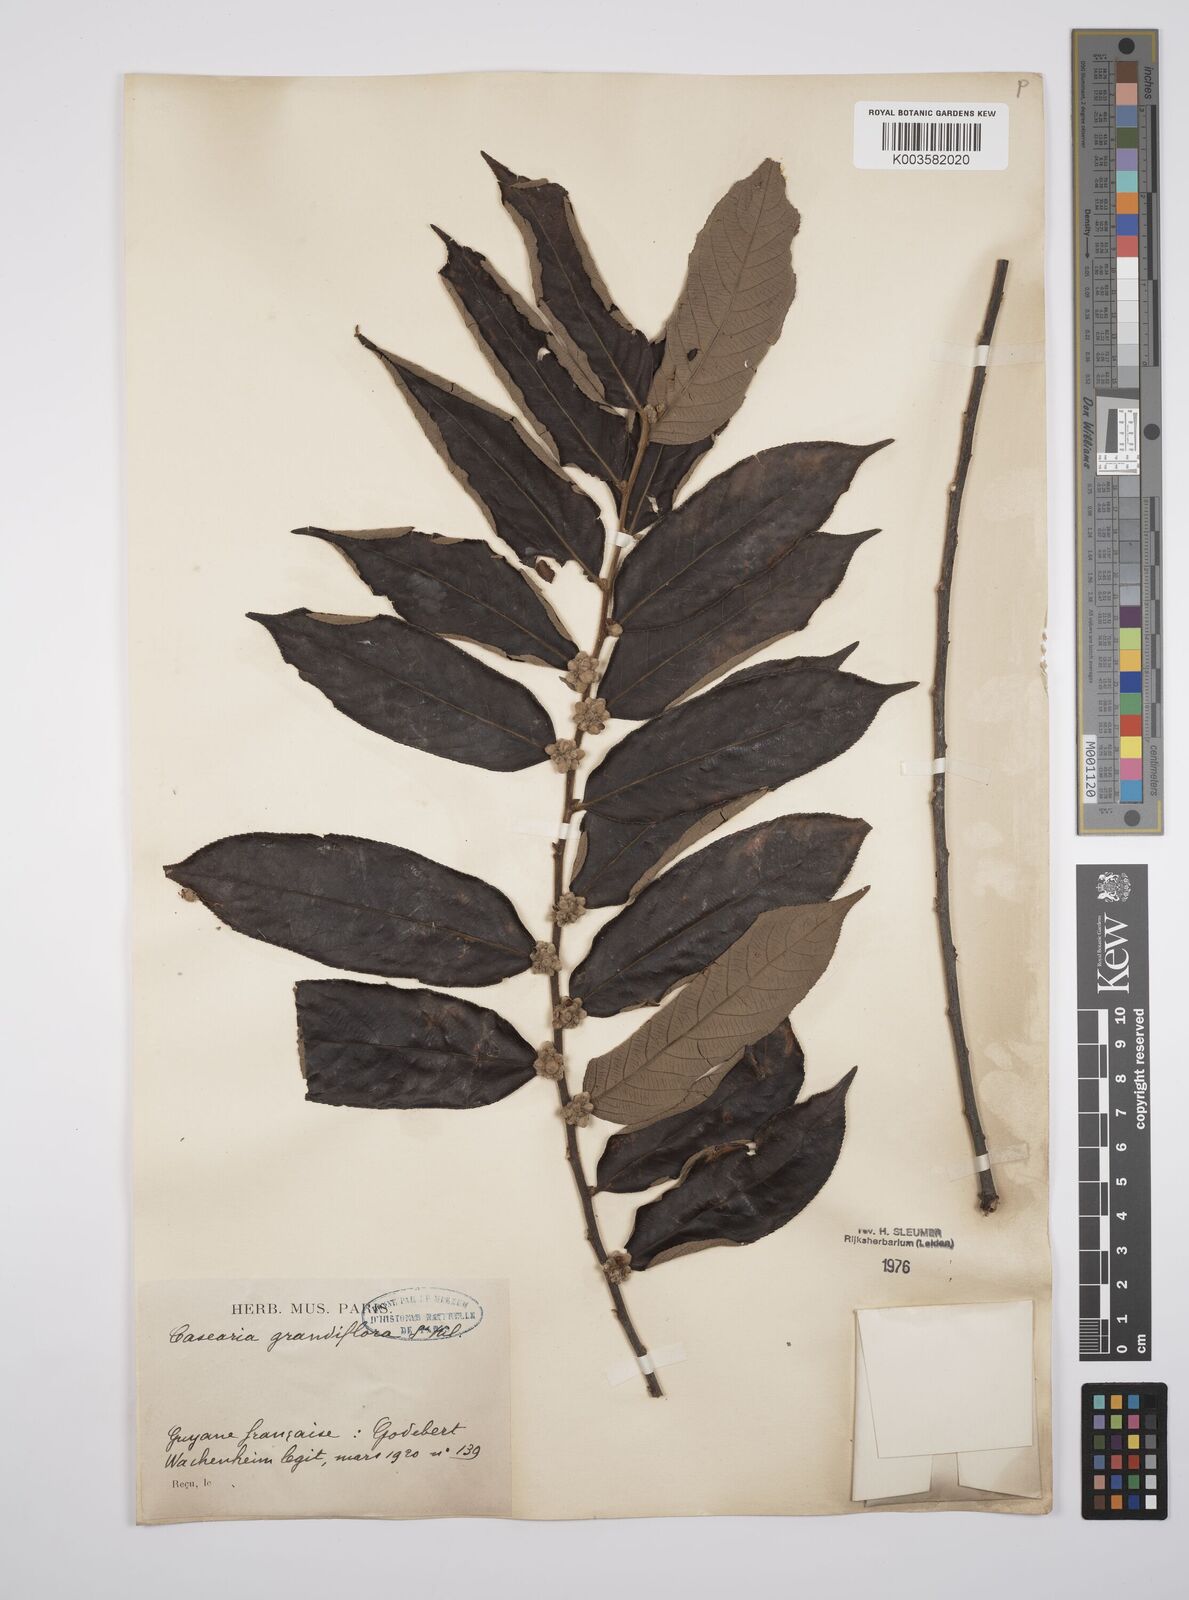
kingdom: Plantae
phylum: Tracheophyta
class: Magnoliopsida
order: Malpighiales
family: Salicaceae
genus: Casearia
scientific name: Casearia grandiflora
